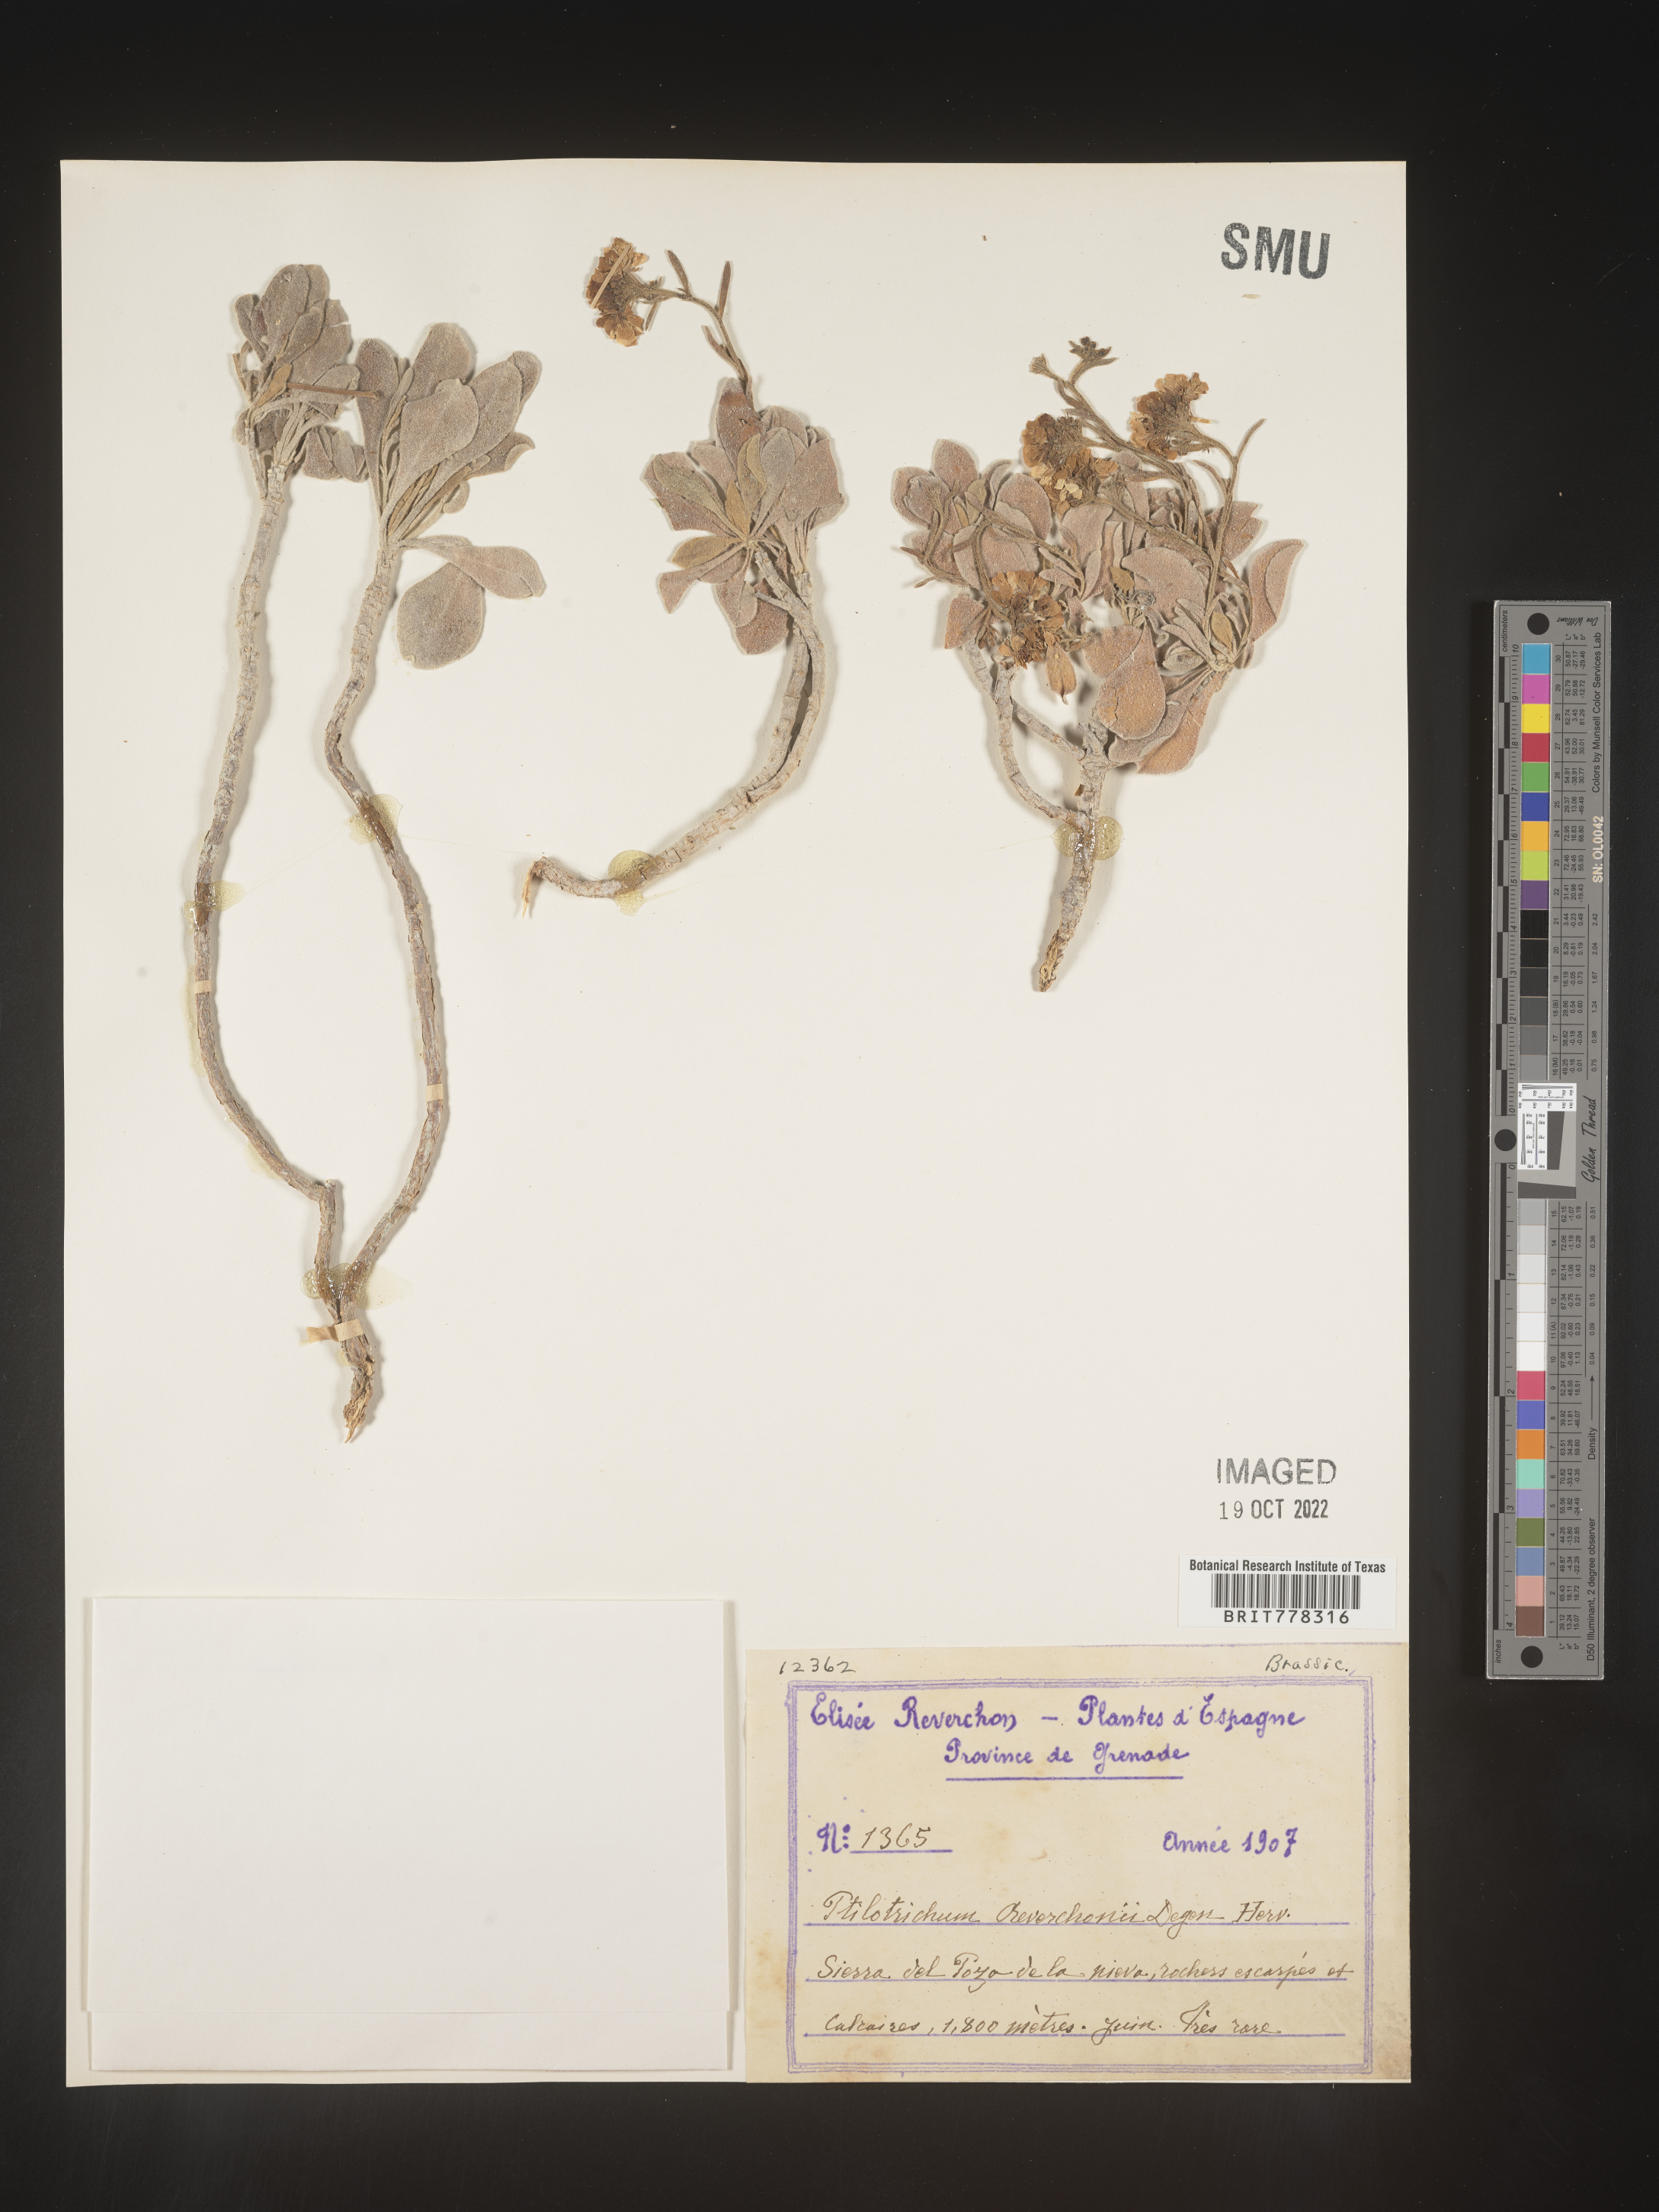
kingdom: Plantae
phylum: Tracheophyta
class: Magnoliopsida
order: Brassicales
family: Brassicaceae
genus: Ptilotrichum
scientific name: Ptilotrichum
